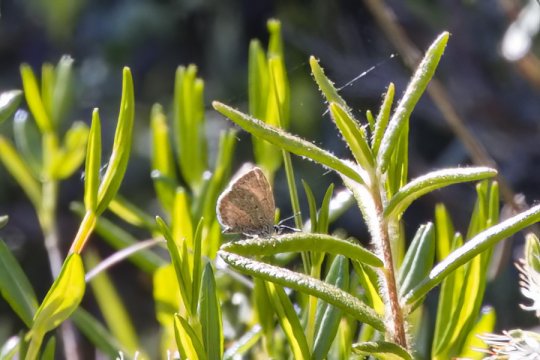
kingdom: Animalia
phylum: Arthropoda
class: Insecta
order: Lepidoptera
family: Lycaenidae
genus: Celastrina
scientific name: Celastrina lucia
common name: Northern Spring Azure
